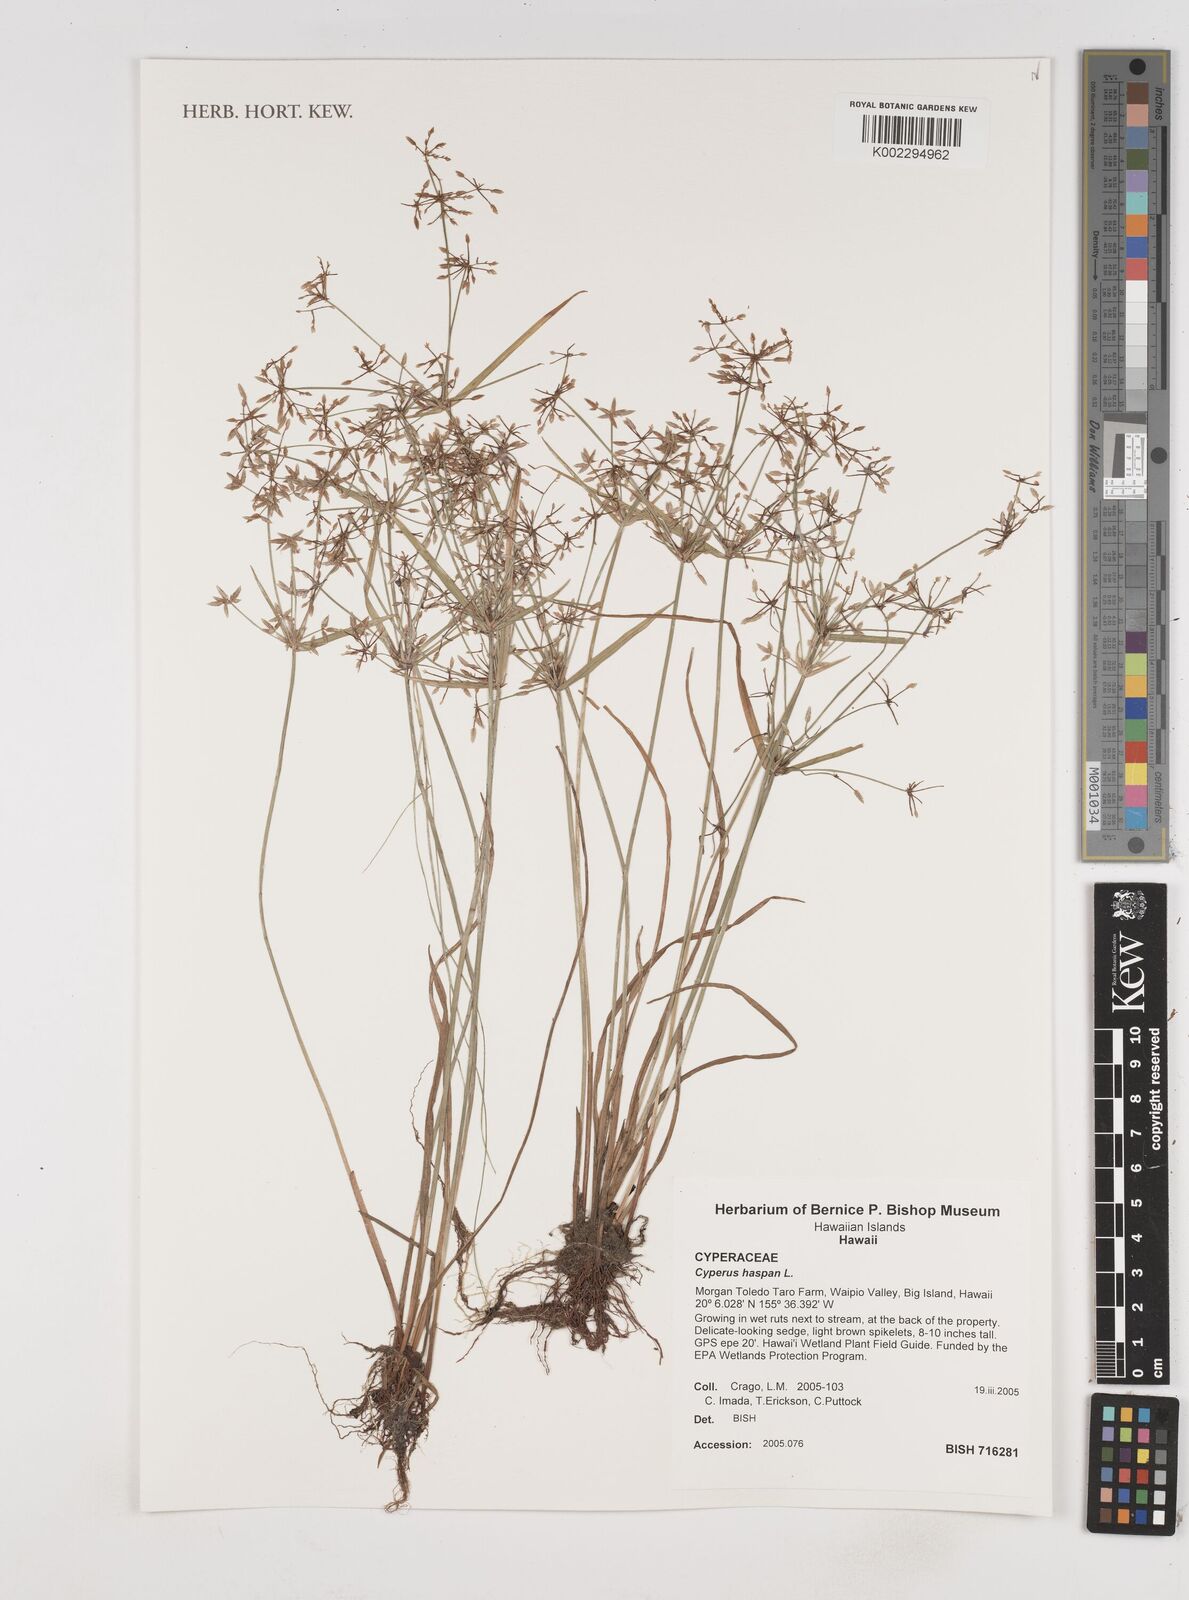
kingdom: Plantae
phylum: Tracheophyta
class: Liliopsida
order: Poales
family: Cyperaceae
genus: Cyperus
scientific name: Cyperus haspan
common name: Haspan flatsedge
